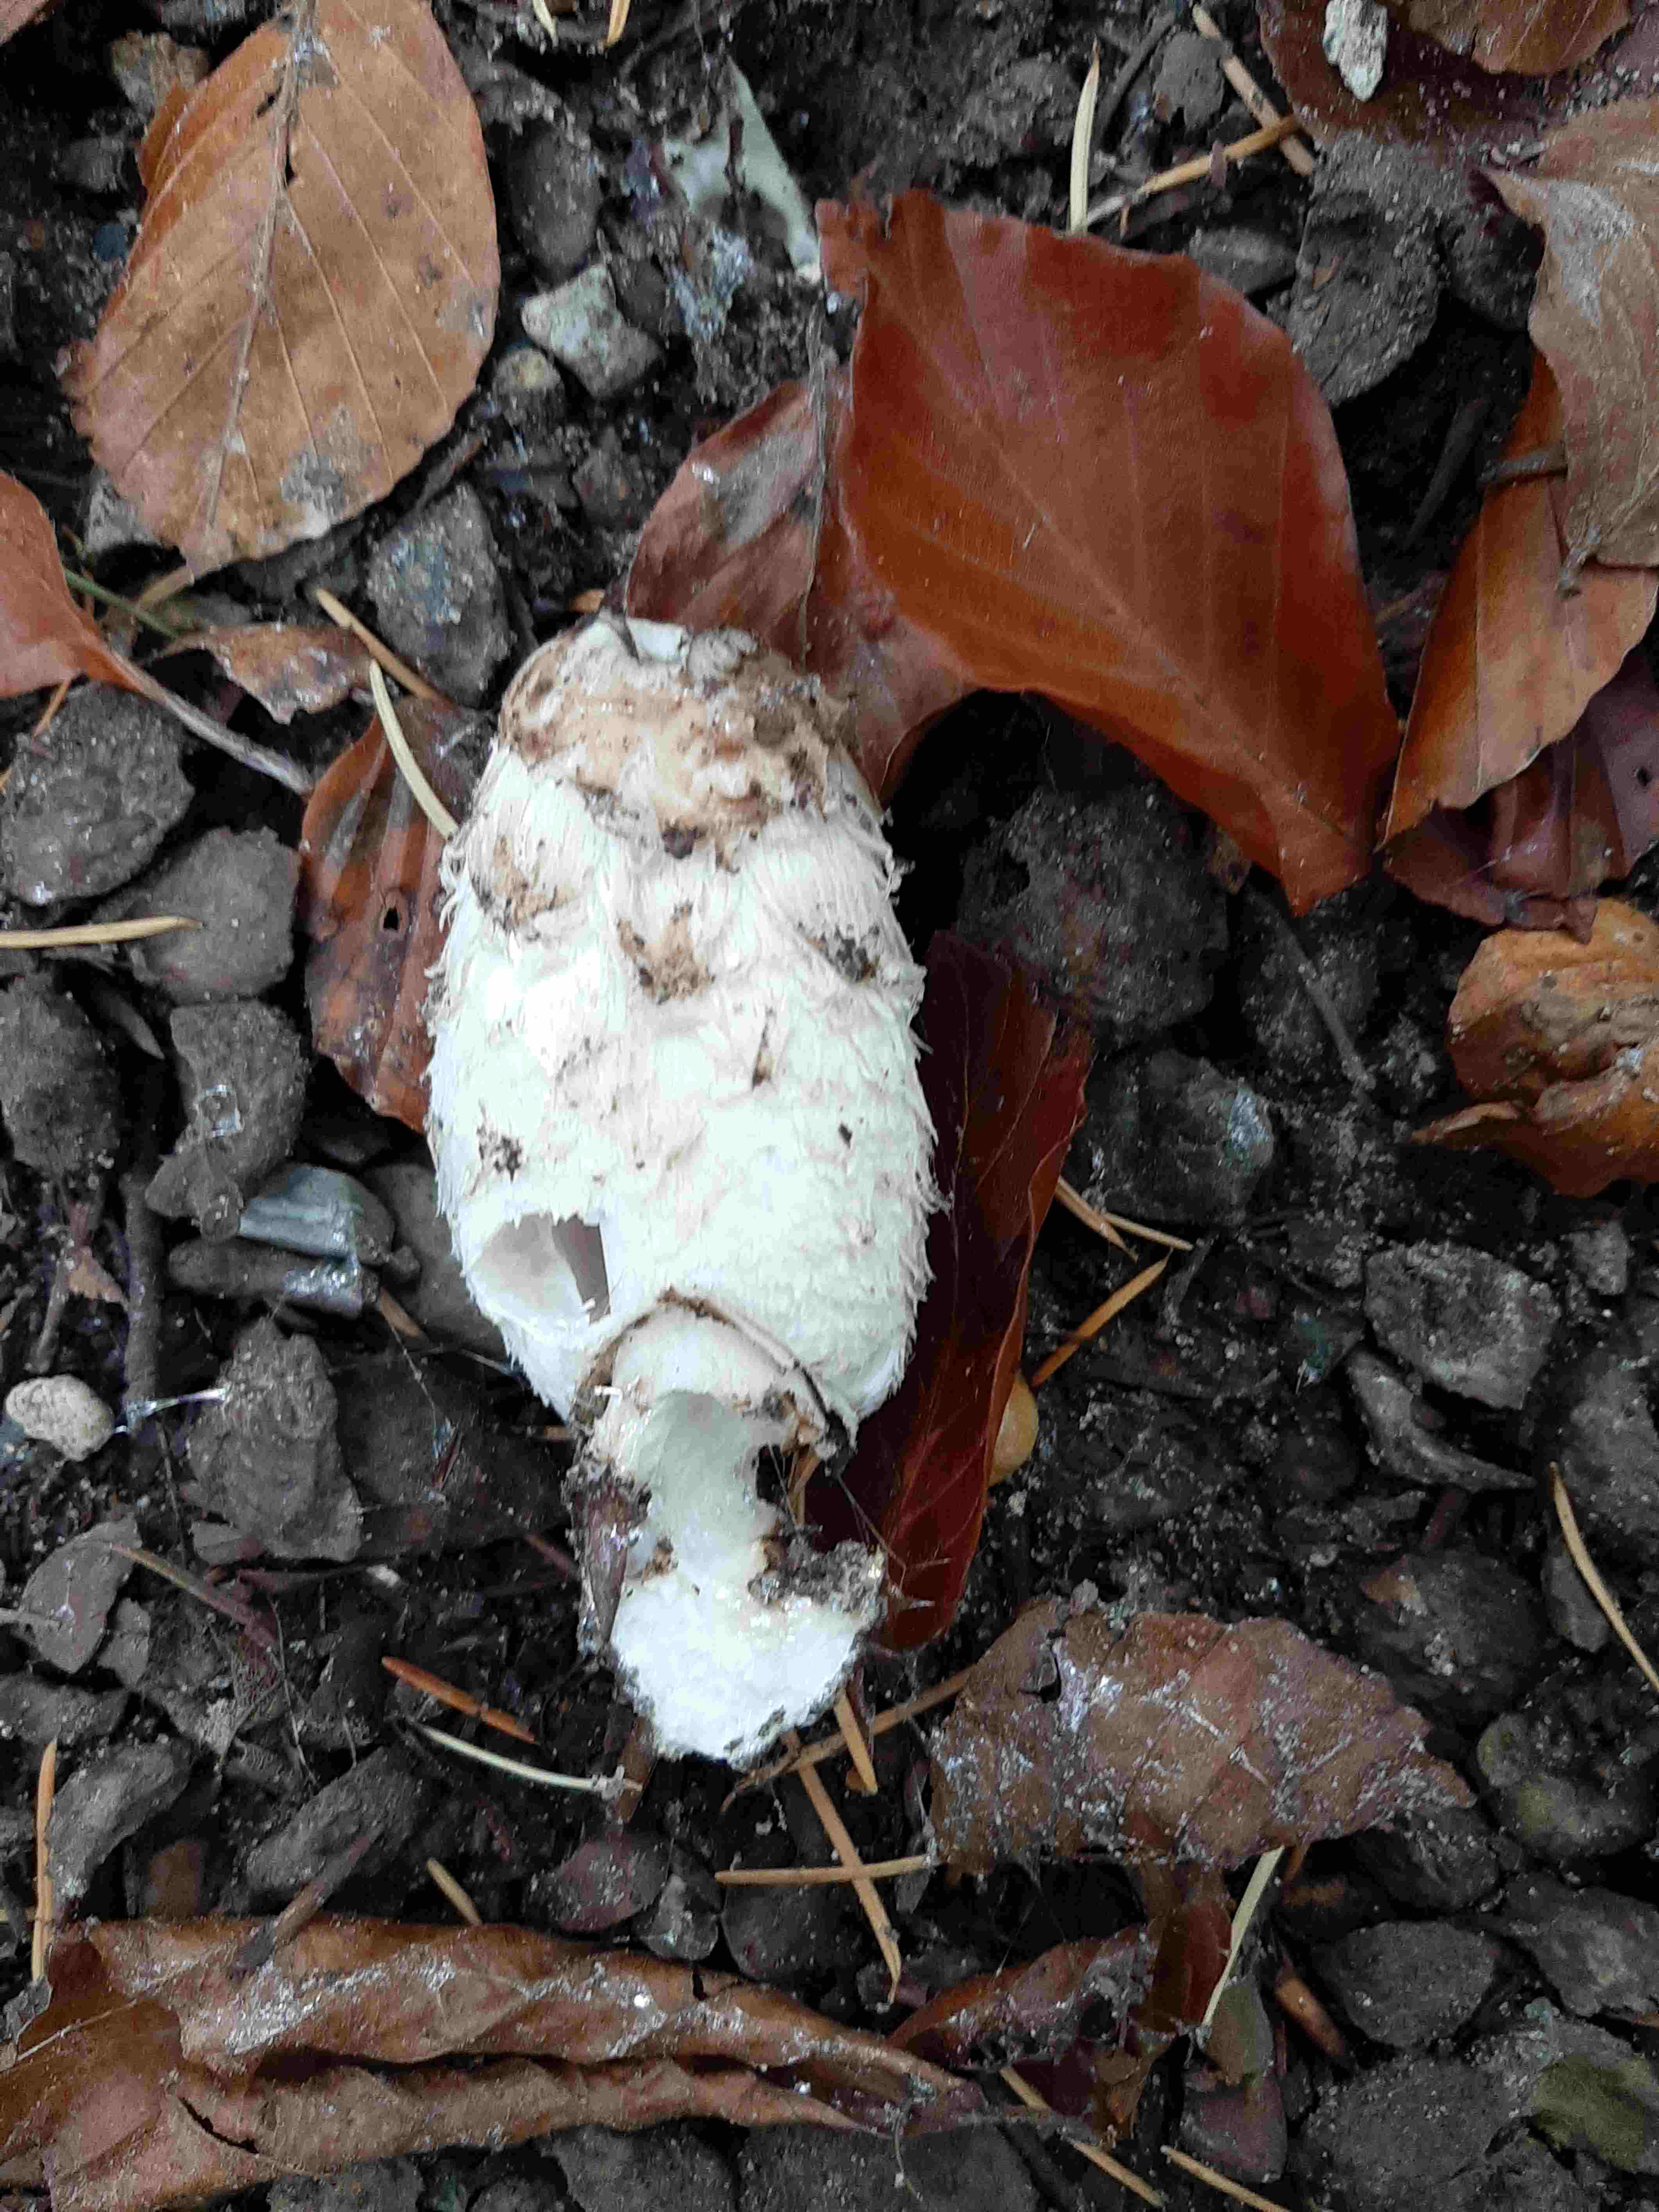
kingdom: Fungi
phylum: Basidiomycota
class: Agaricomycetes
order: Agaricales
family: Agaricaceae
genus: Coprinus
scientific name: Coprinus comatus
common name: stor parykhat
